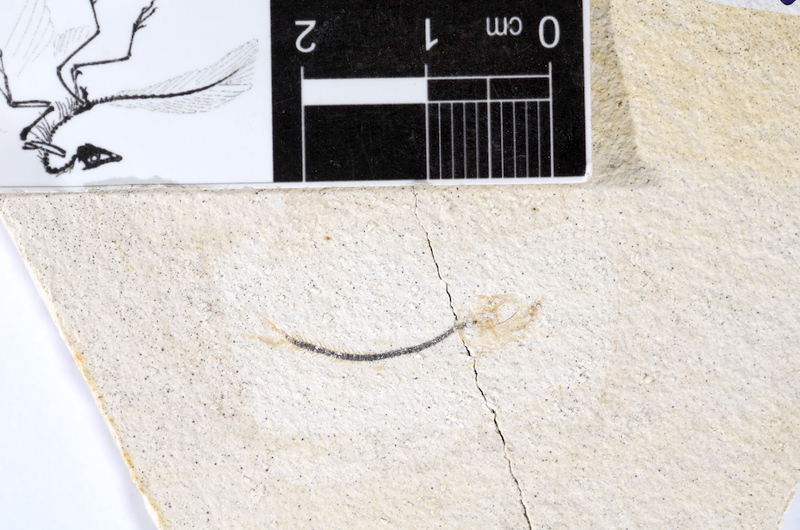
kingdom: Animalia
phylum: Chordata
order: Salmoniformes
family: Orthogonikleithridae
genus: Orthogonikleithrus
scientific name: Orthogonikleithrus hoelli
